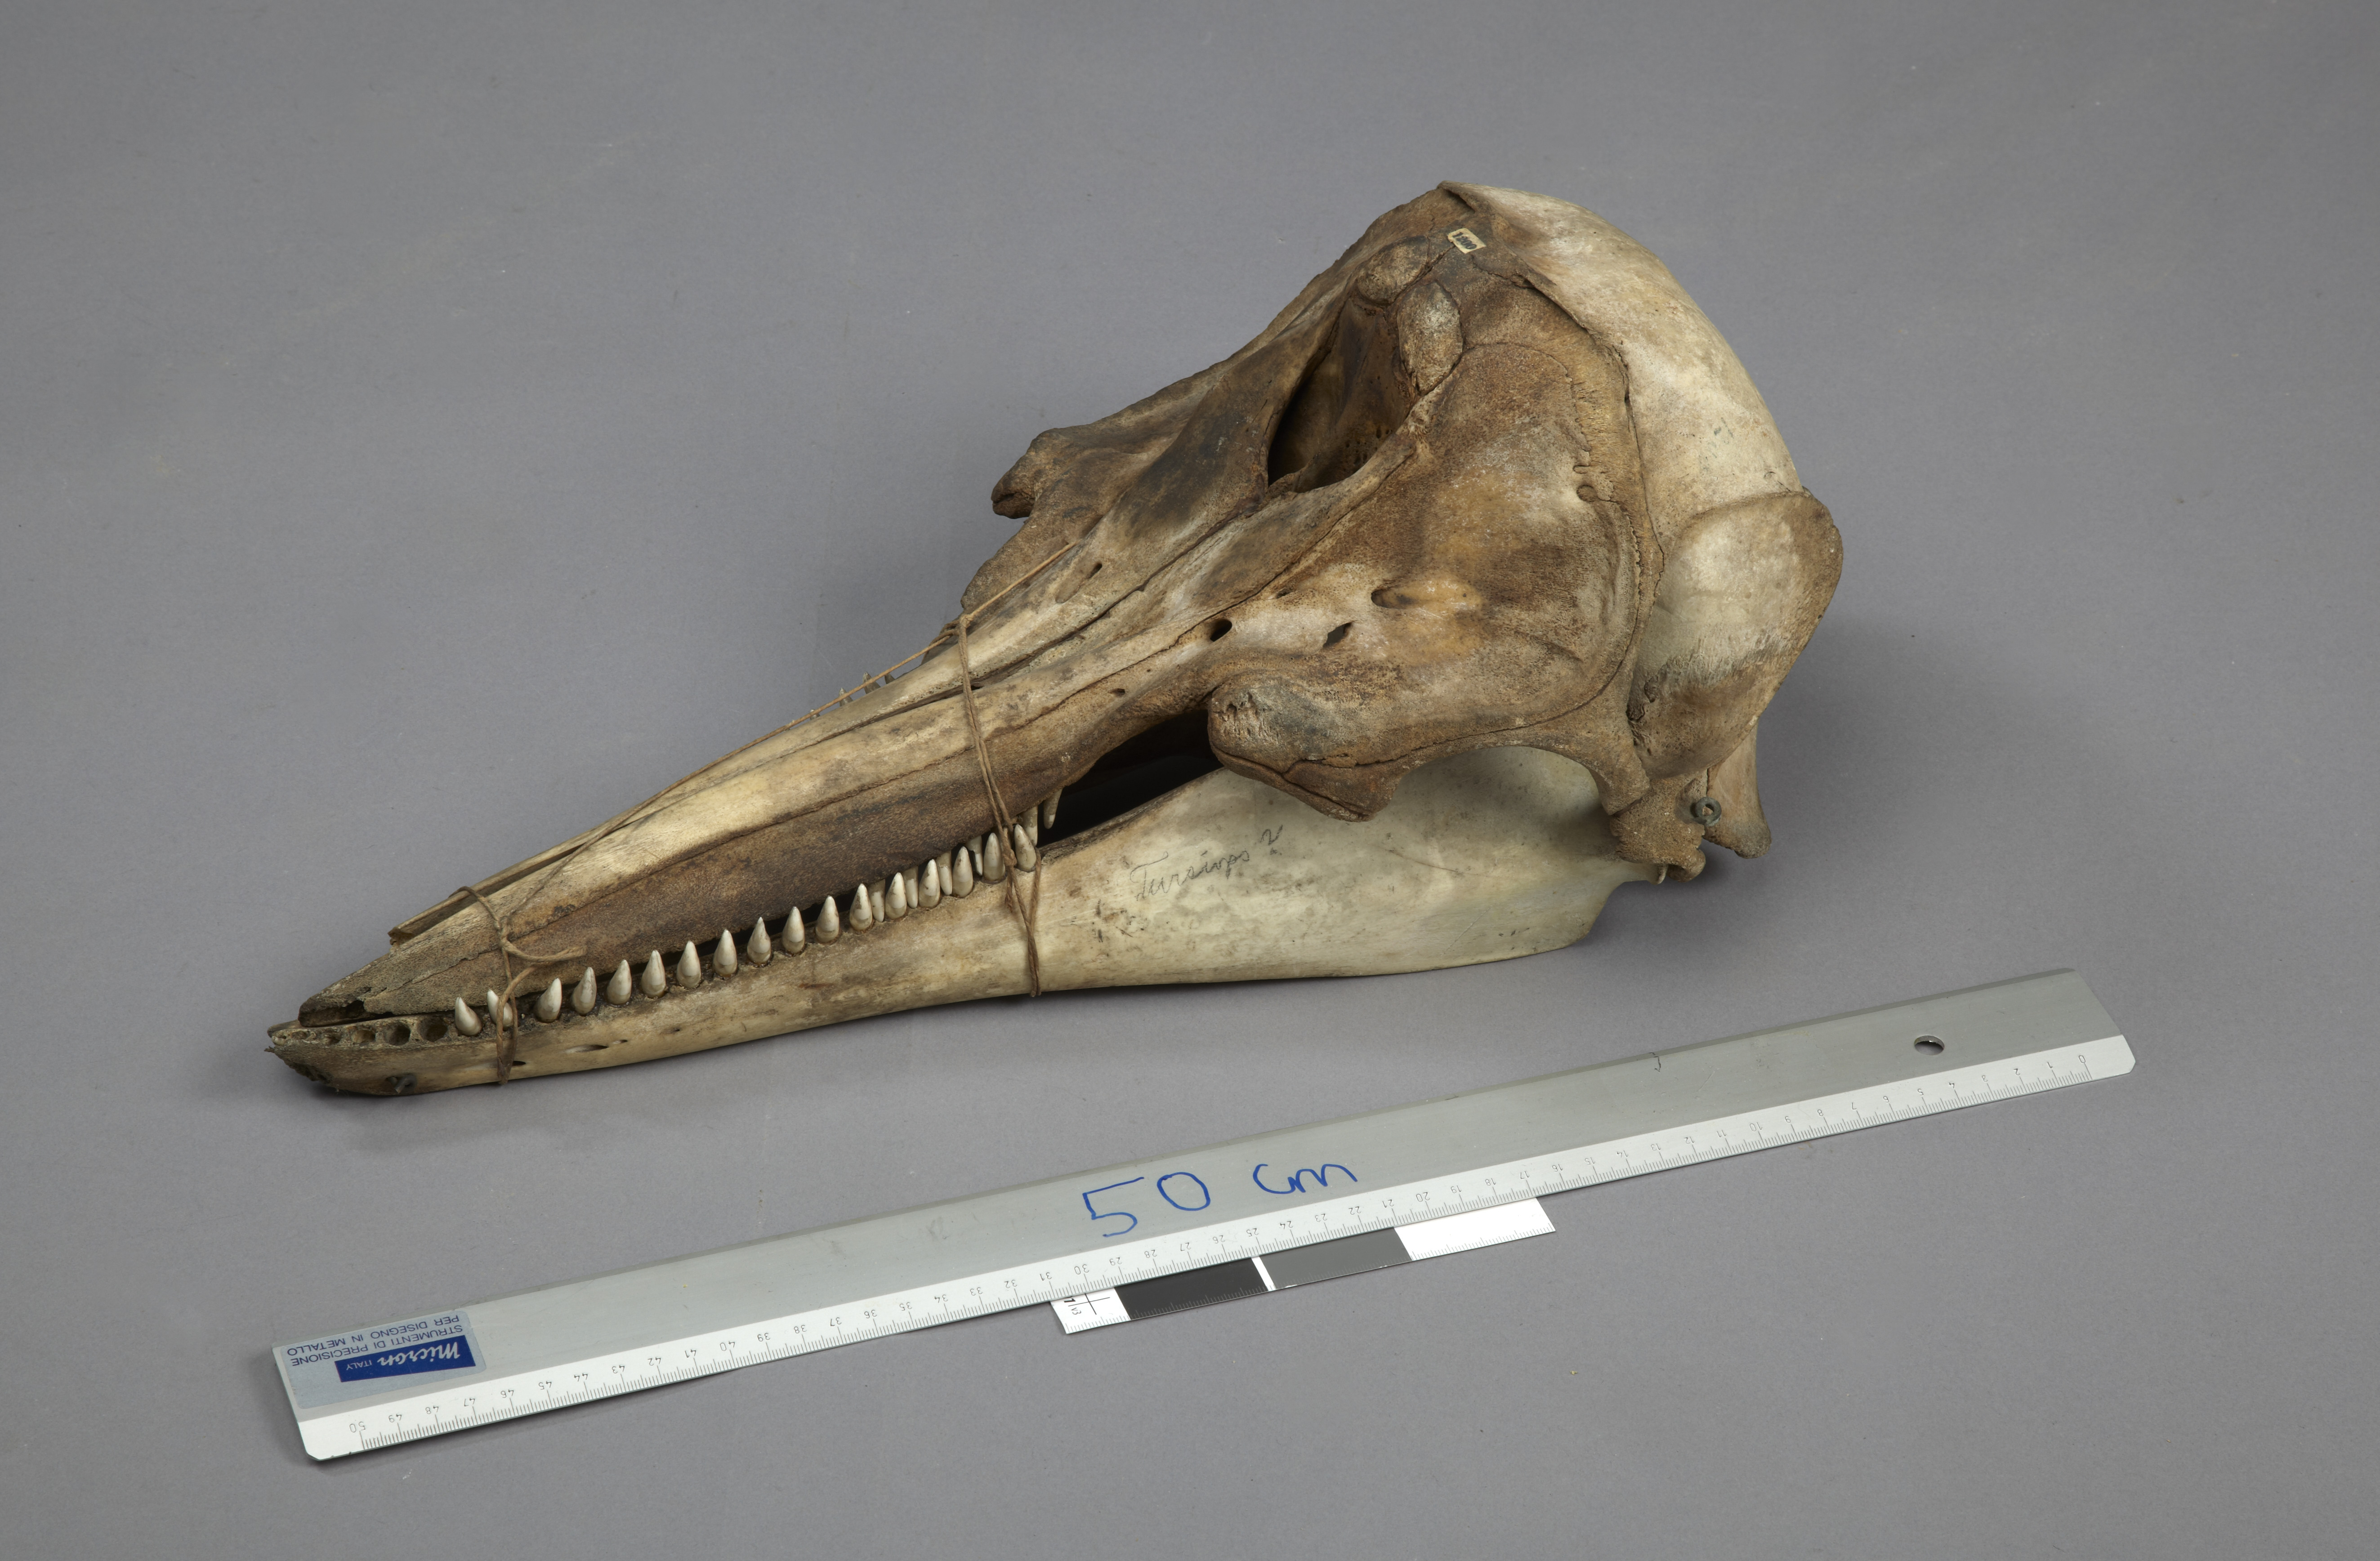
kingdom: Animalia
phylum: Chordata
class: Mammalia
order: Cetacea
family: Delphinidae
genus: Lagenorhynchus
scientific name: Lagenorhynchus albirostris
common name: White-beaked dolphin
